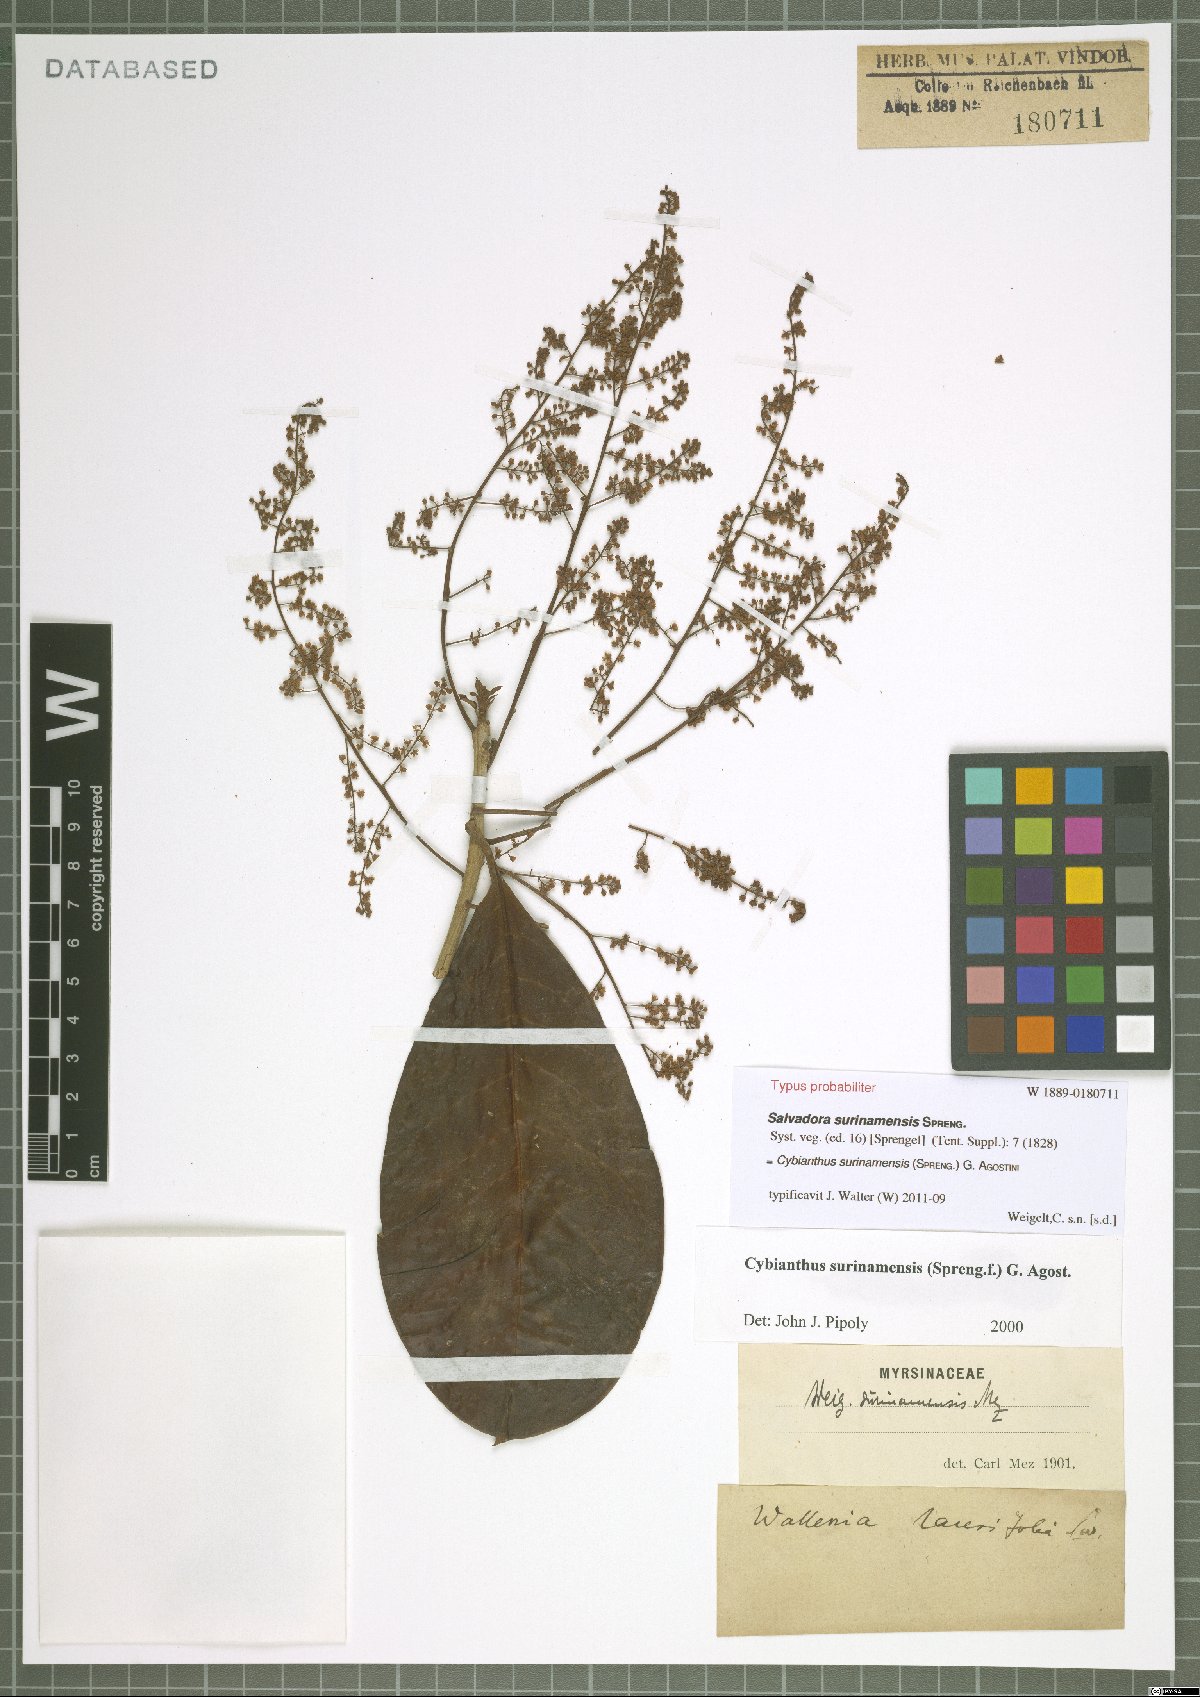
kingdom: Plantae
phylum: Tracheophyta
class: Magnoliopsida
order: Ericales
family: Primulaceae
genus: Cybianthus
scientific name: Cybianthus surinamensis
